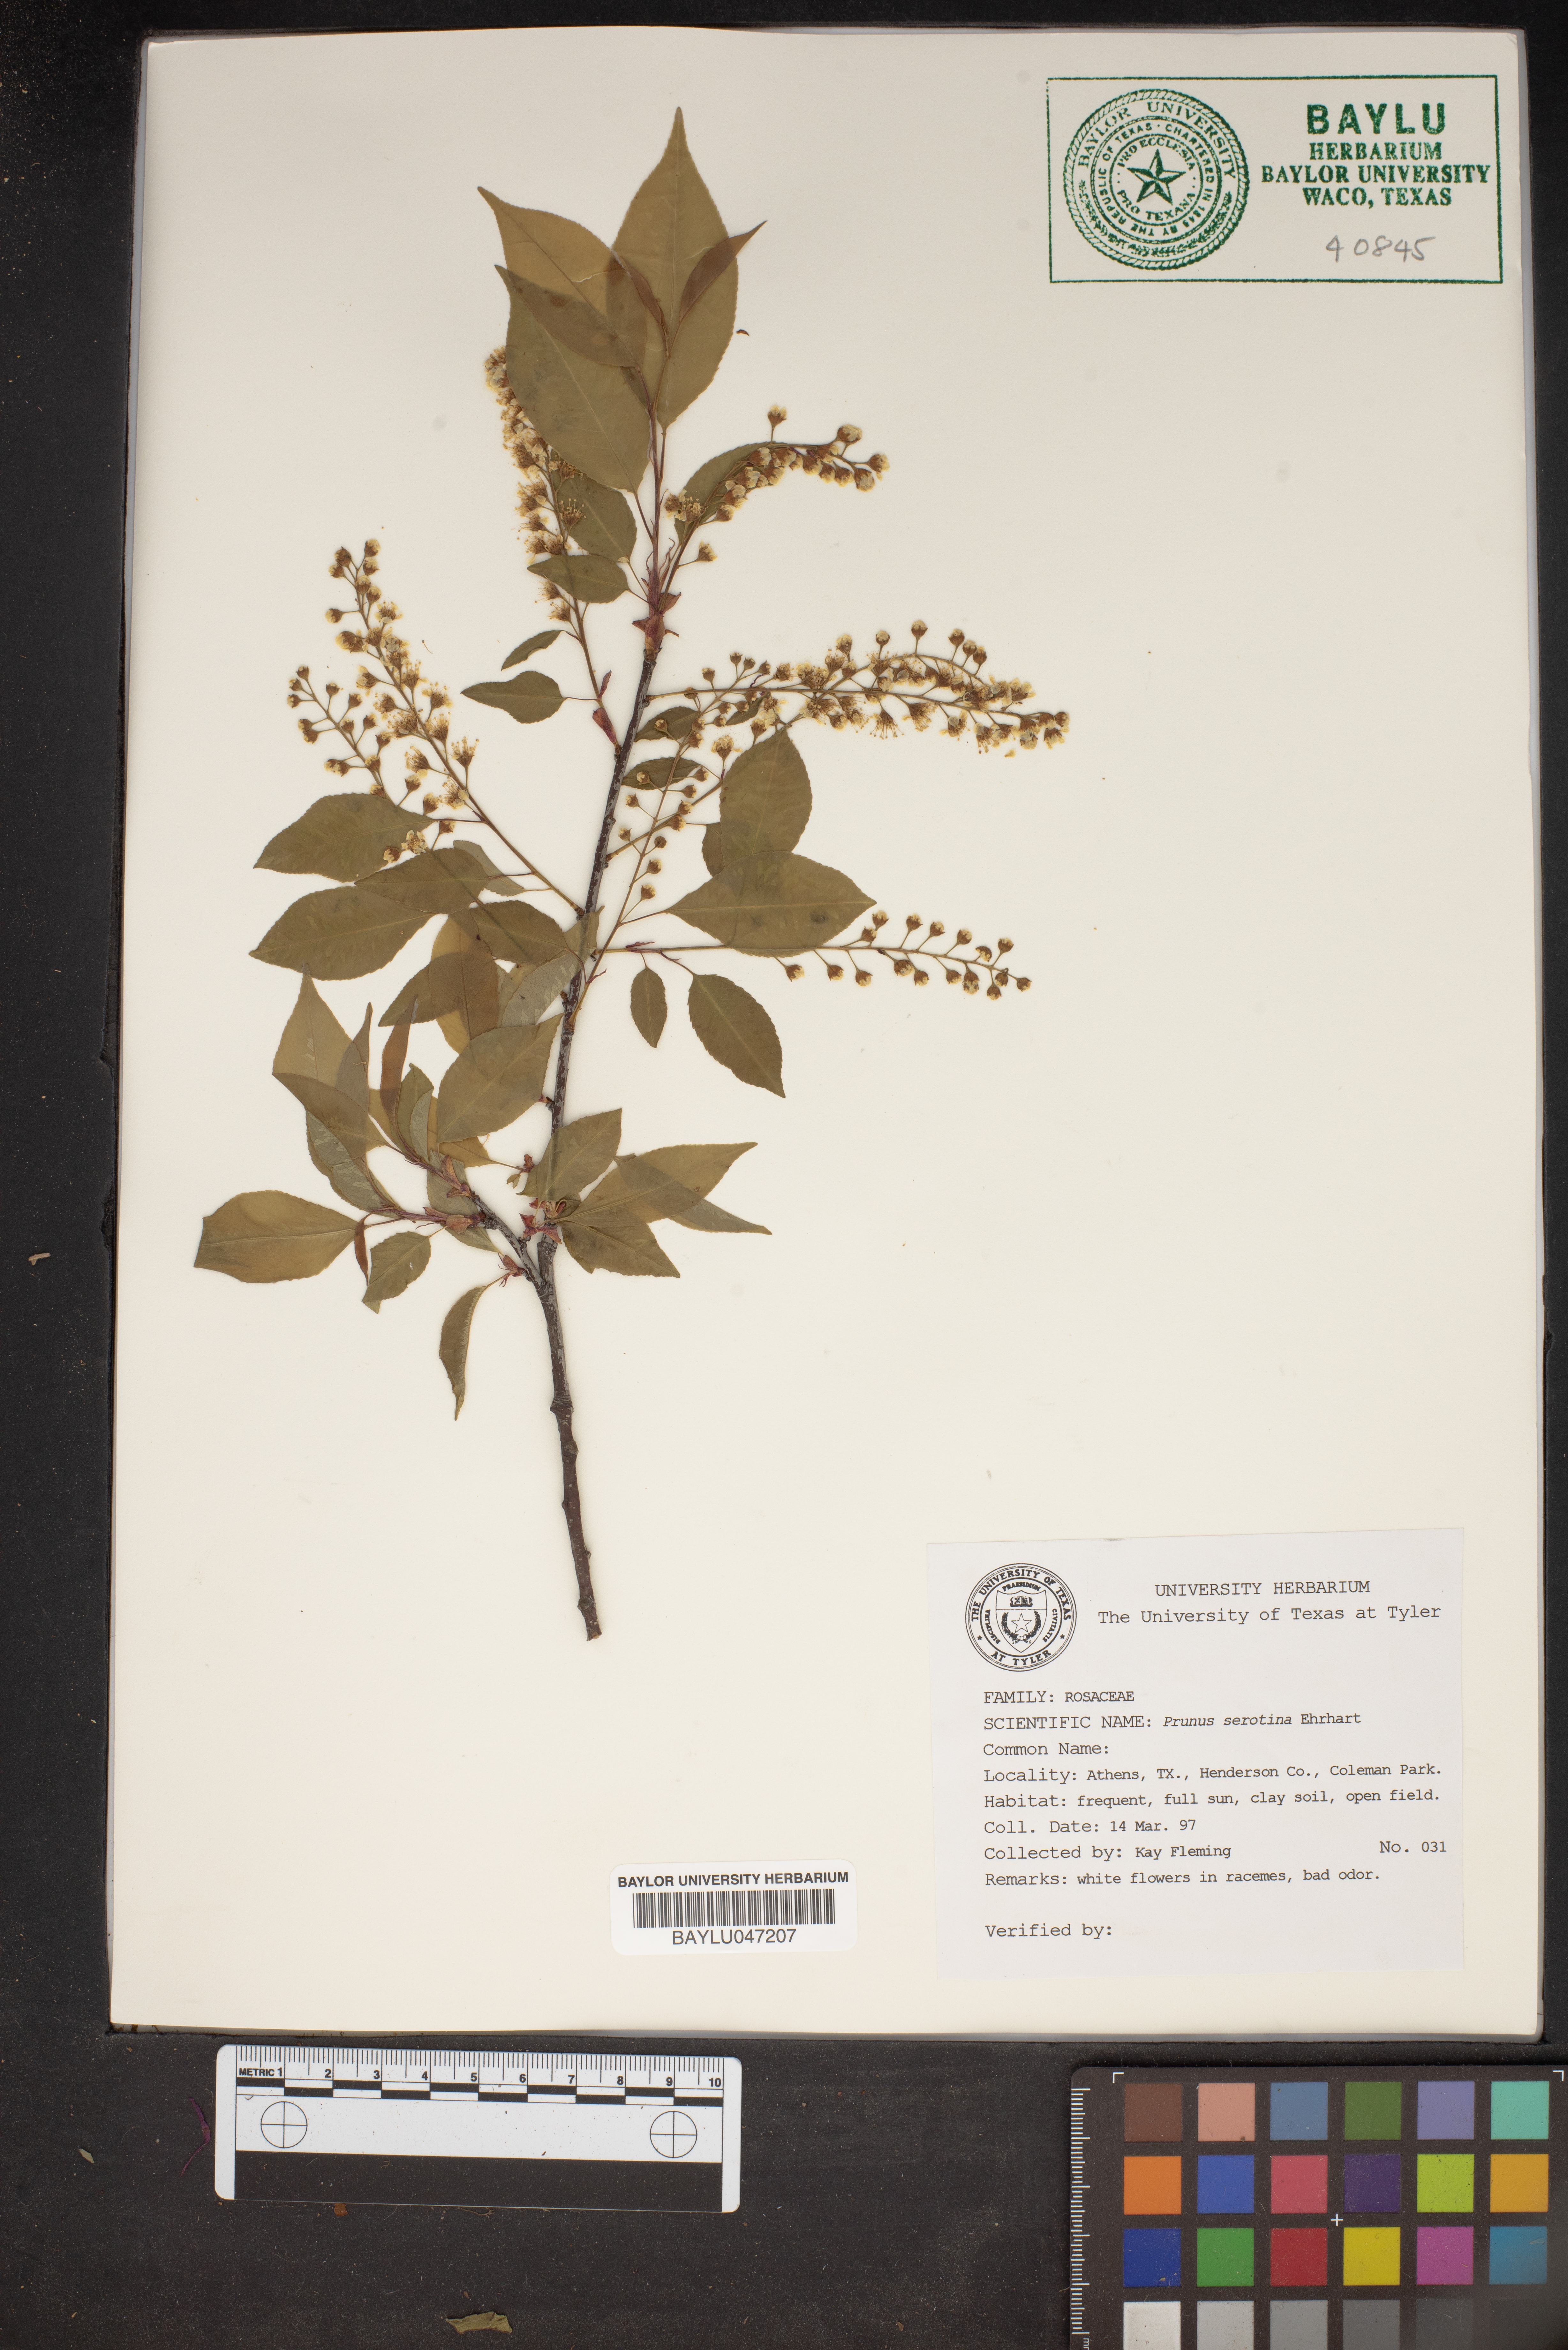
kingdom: Plantae
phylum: Tracheophyta
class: Magnoliopsida
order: Rosales
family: Rosaceae
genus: Prunus
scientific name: Prunus serotina
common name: Black cherry
